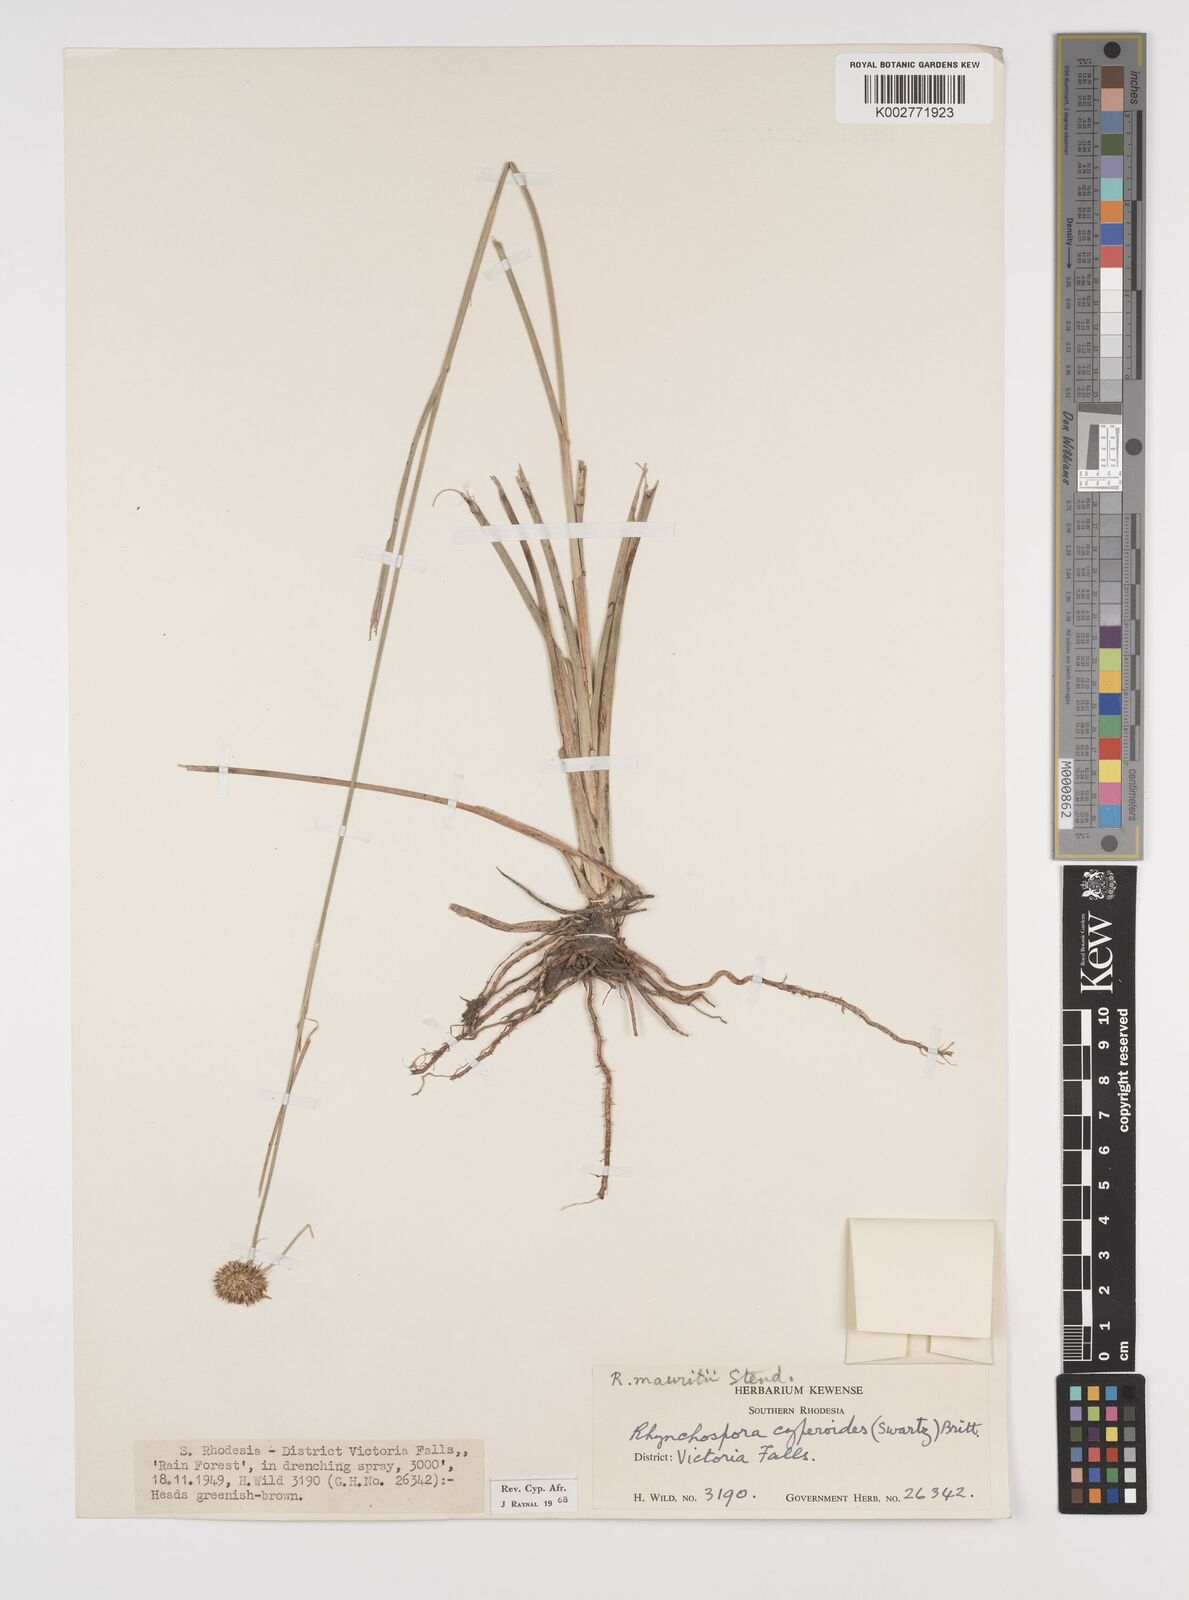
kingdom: Plantae
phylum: Tracheophyta
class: Liliopsida
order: Poales
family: Cyperaceae
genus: Rhynchospora
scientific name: Rhynchospora holoschoenoides
